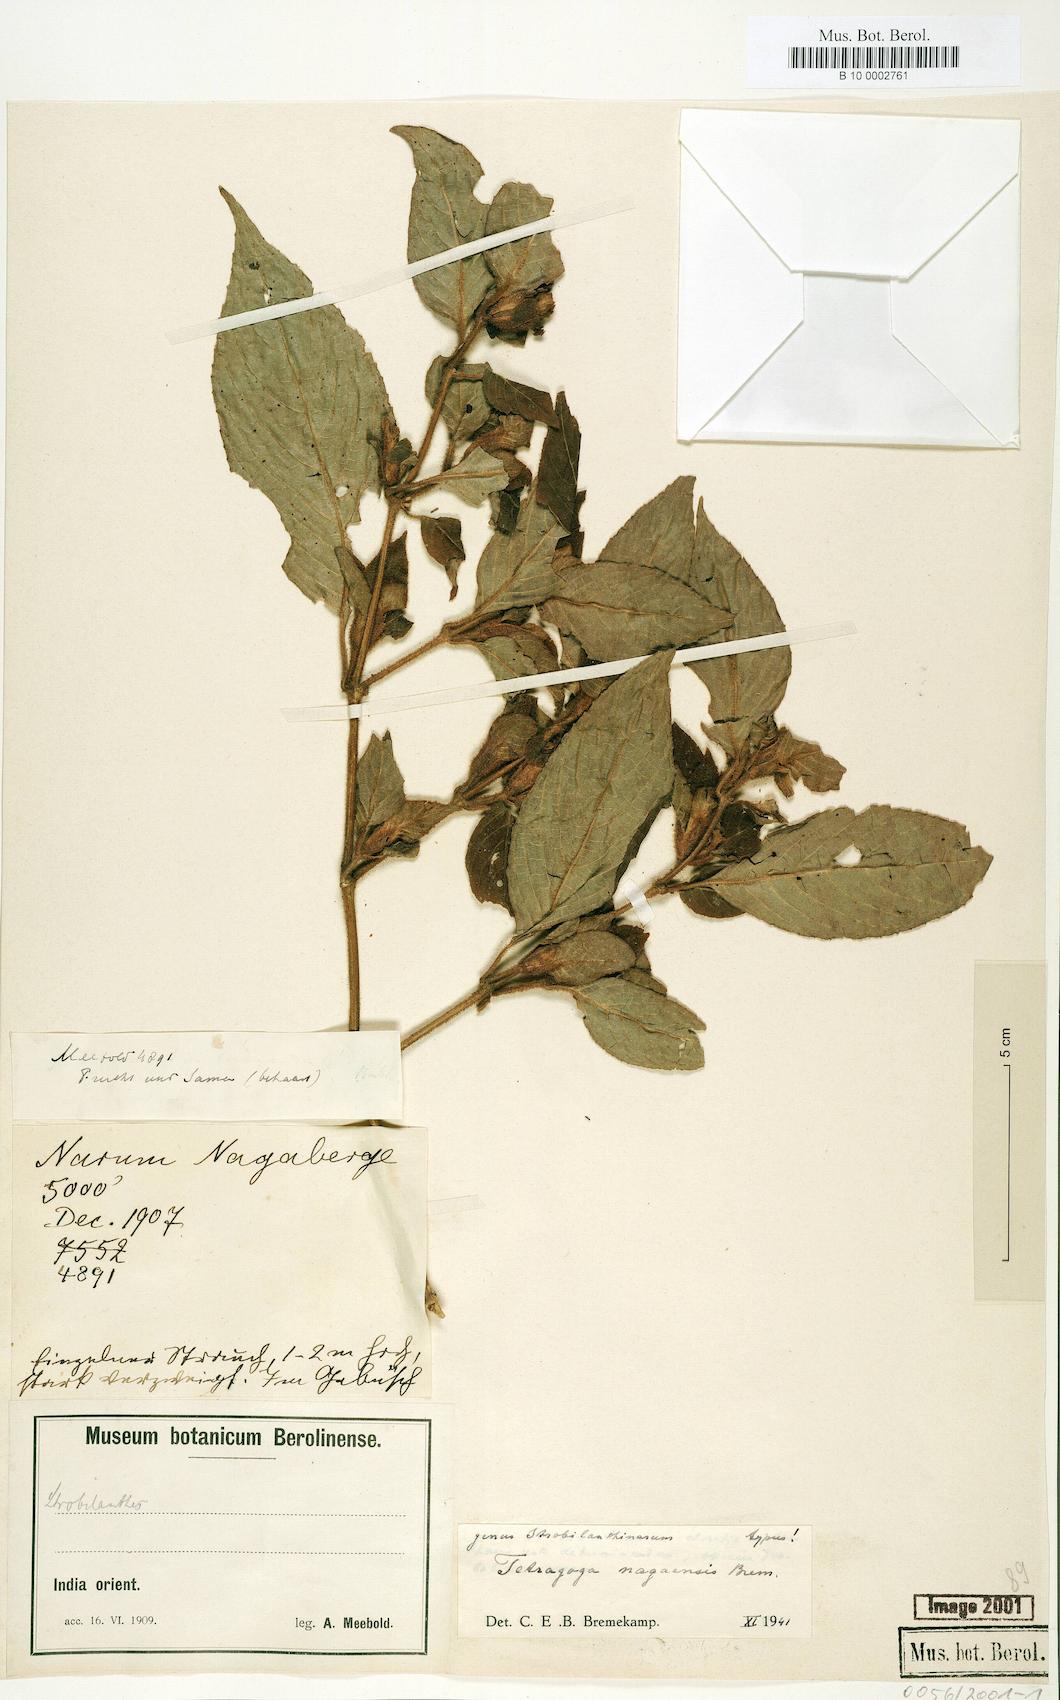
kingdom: Plantae
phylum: Tracheophyta
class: Magnoliopsida
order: Lamiales
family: Acanthaceae
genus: Strobilanthes
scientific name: Strobilanthes cruciata
